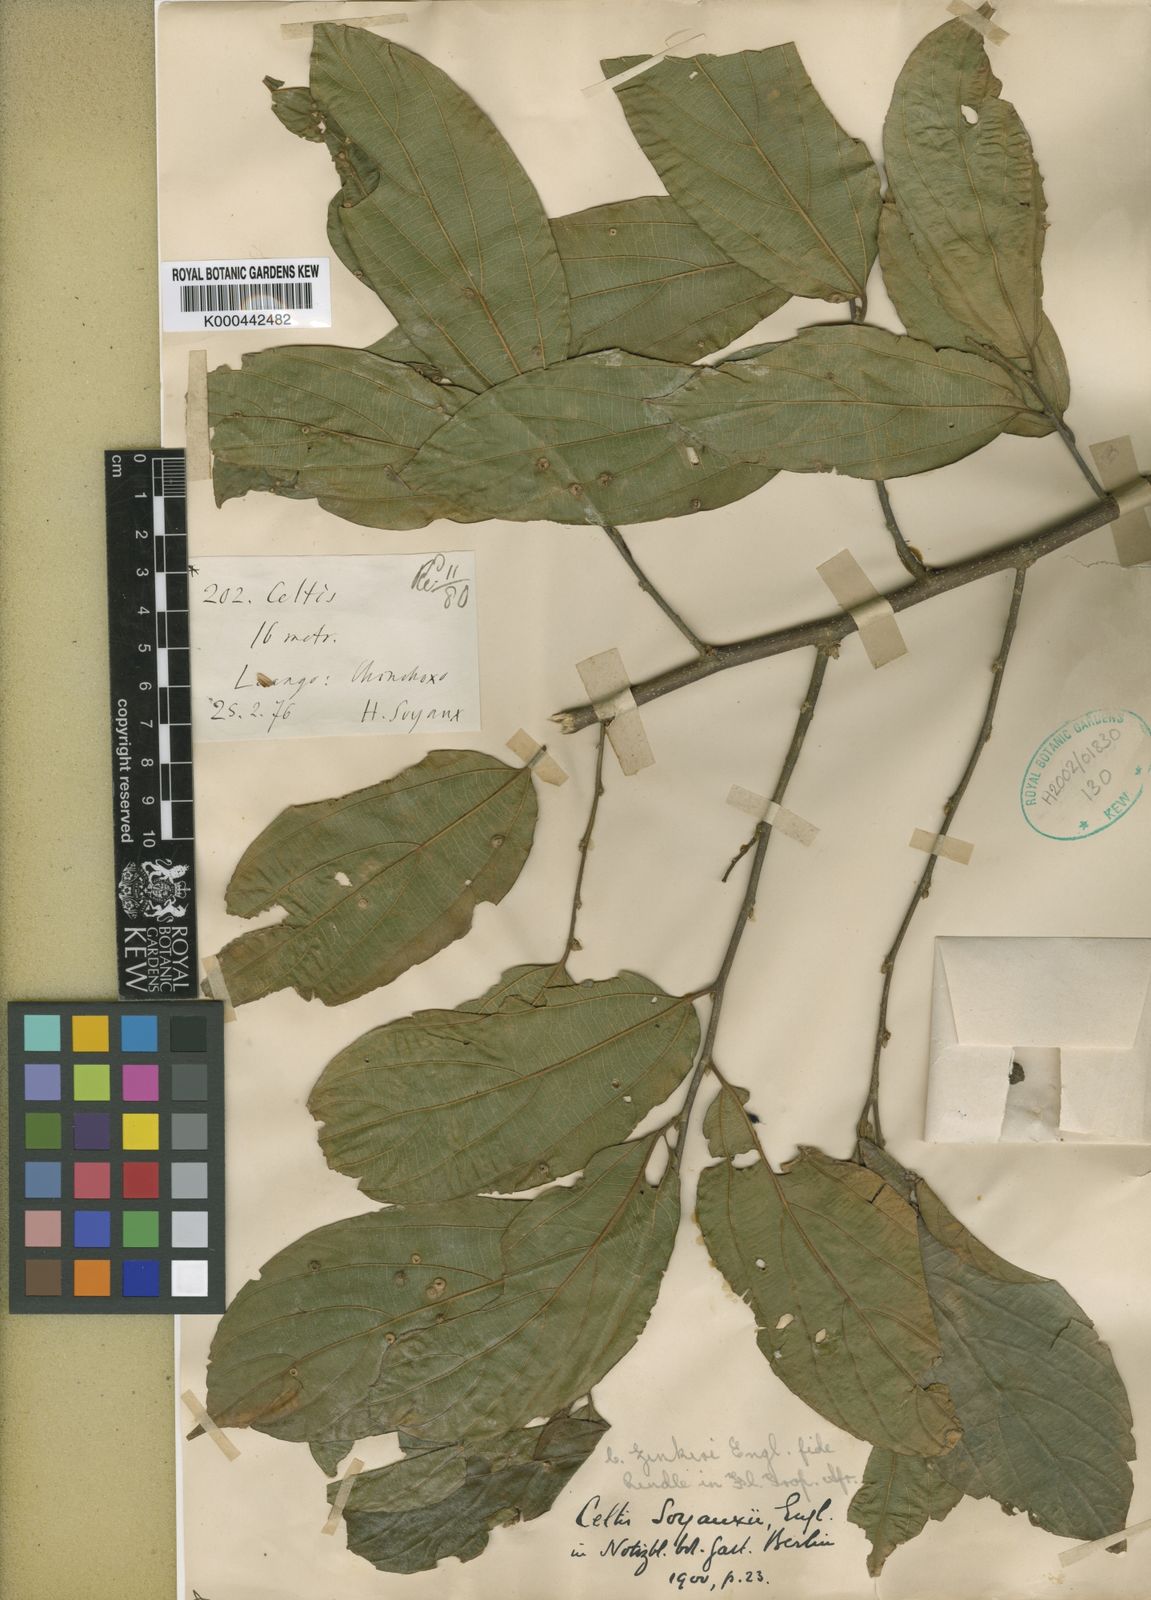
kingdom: Plantae
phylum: Tracheophyta
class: Magnoliopsida
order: Rosales
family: Cannabaceae
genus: Celtis
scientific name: Celtis zenkeri
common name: African celtis
